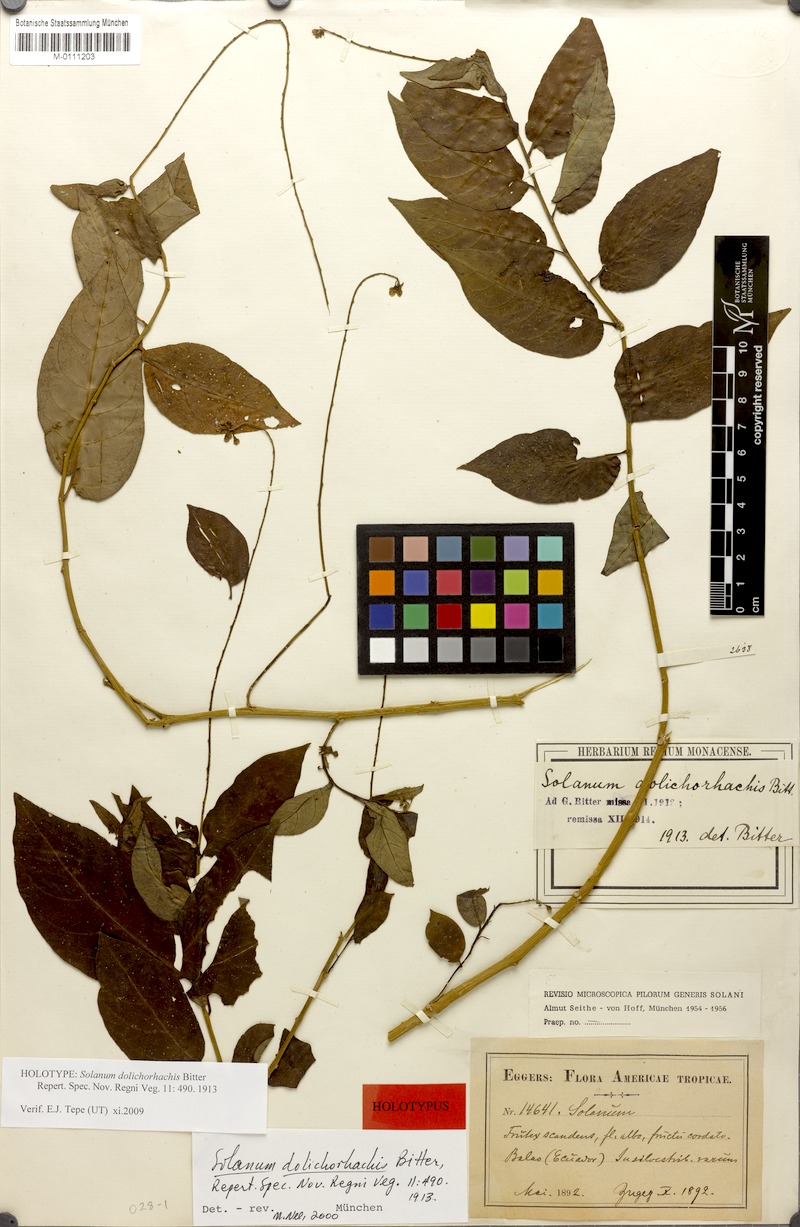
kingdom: Plantae
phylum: Tracheophyta
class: Magnoliopsida
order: Solanales
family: Solanaceae
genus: Solanum
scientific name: Solanum dolichorhachis
